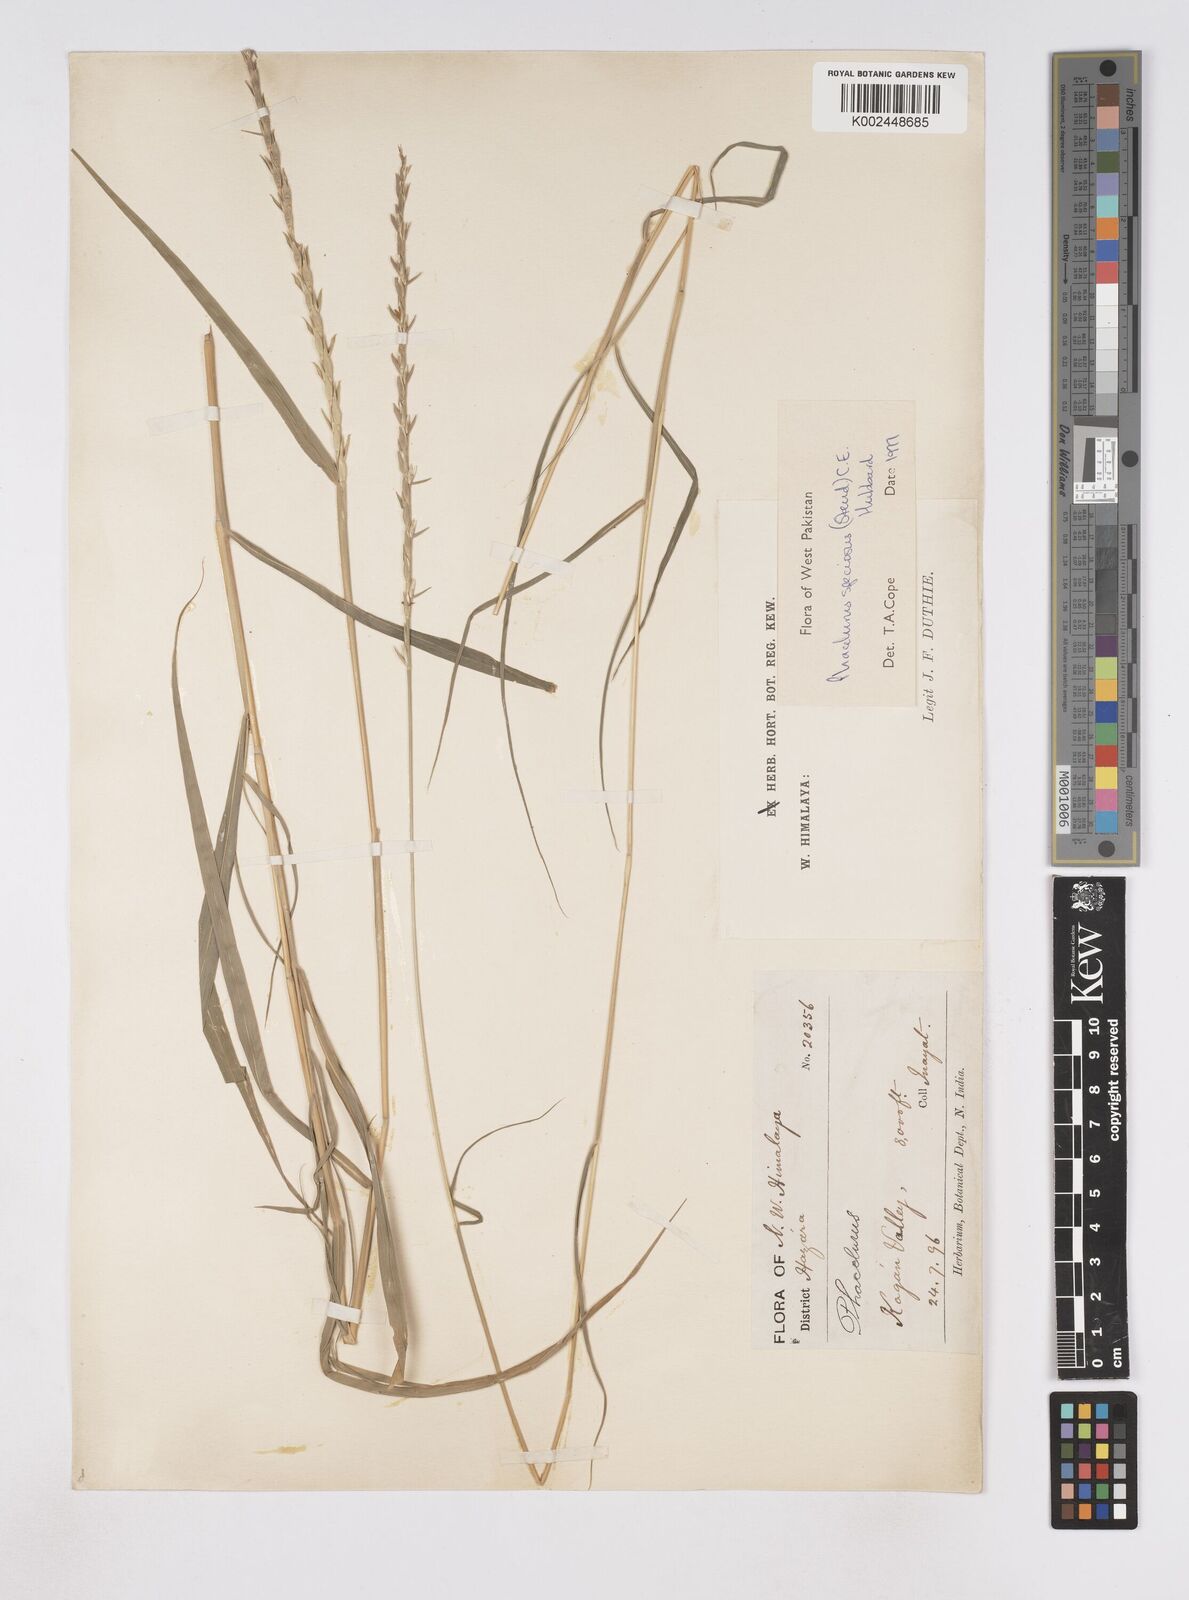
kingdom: Plantae
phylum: Tracheophyta
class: Liliopsida
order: Poales
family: Poaceae
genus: Phacelurus
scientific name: Phacelurus speciosus
